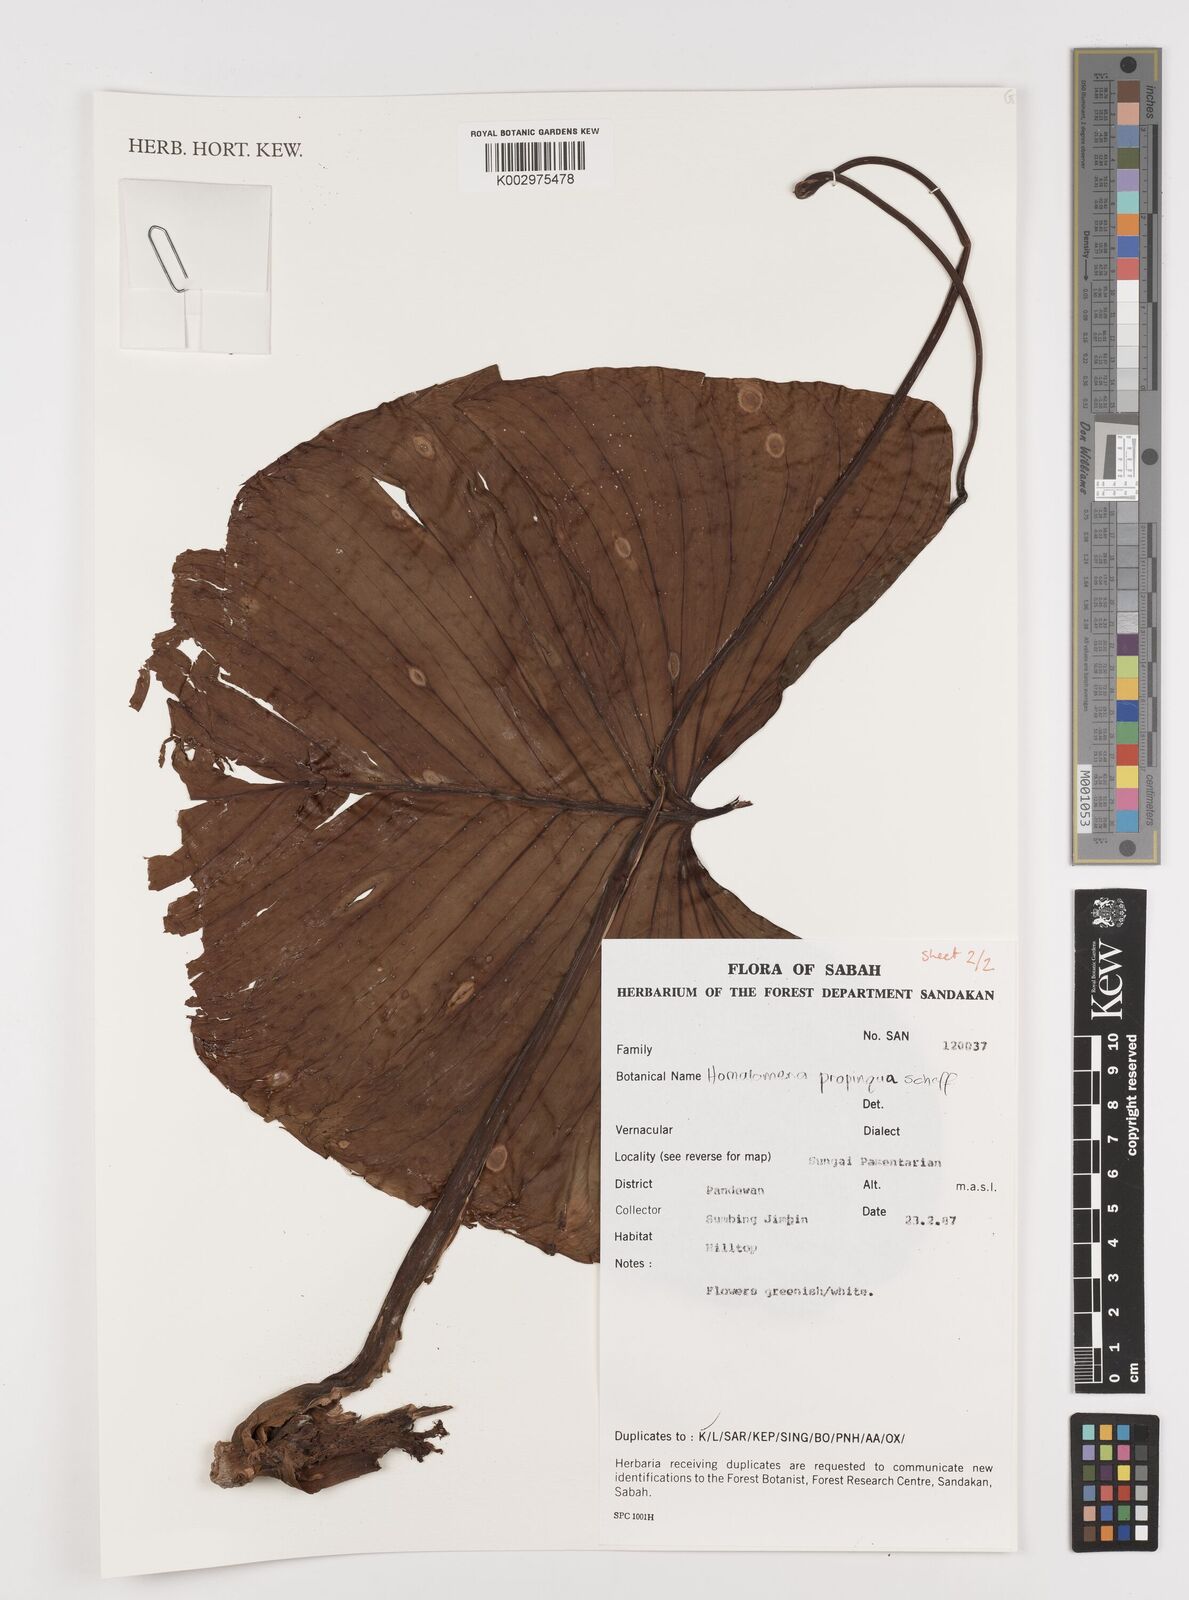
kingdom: Plantae
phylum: Tracheophyta
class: Liliopsida
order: Alismatales
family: Araceae
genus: Homalomena
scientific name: Homalomena humilis
